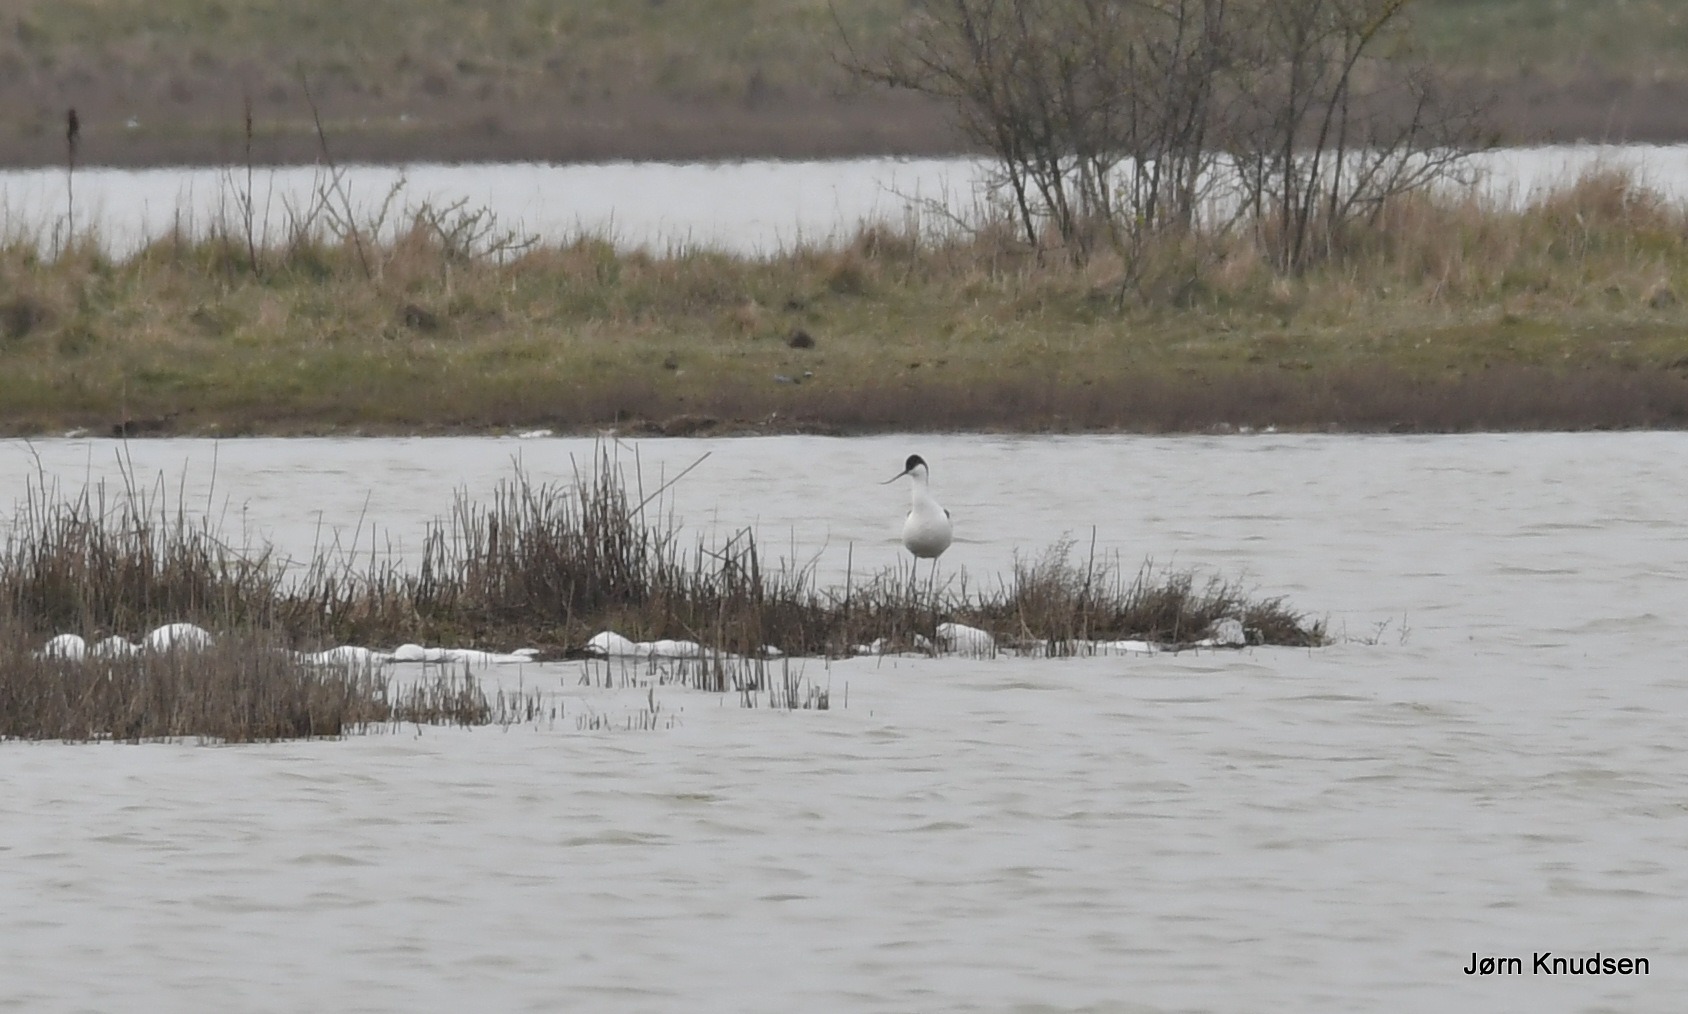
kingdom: Animalia
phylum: Chordata
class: Aves
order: Charadriiformes
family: Recurvirostridae
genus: Recurvirostra
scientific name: Recurvirostra avosetta
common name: Klyde
